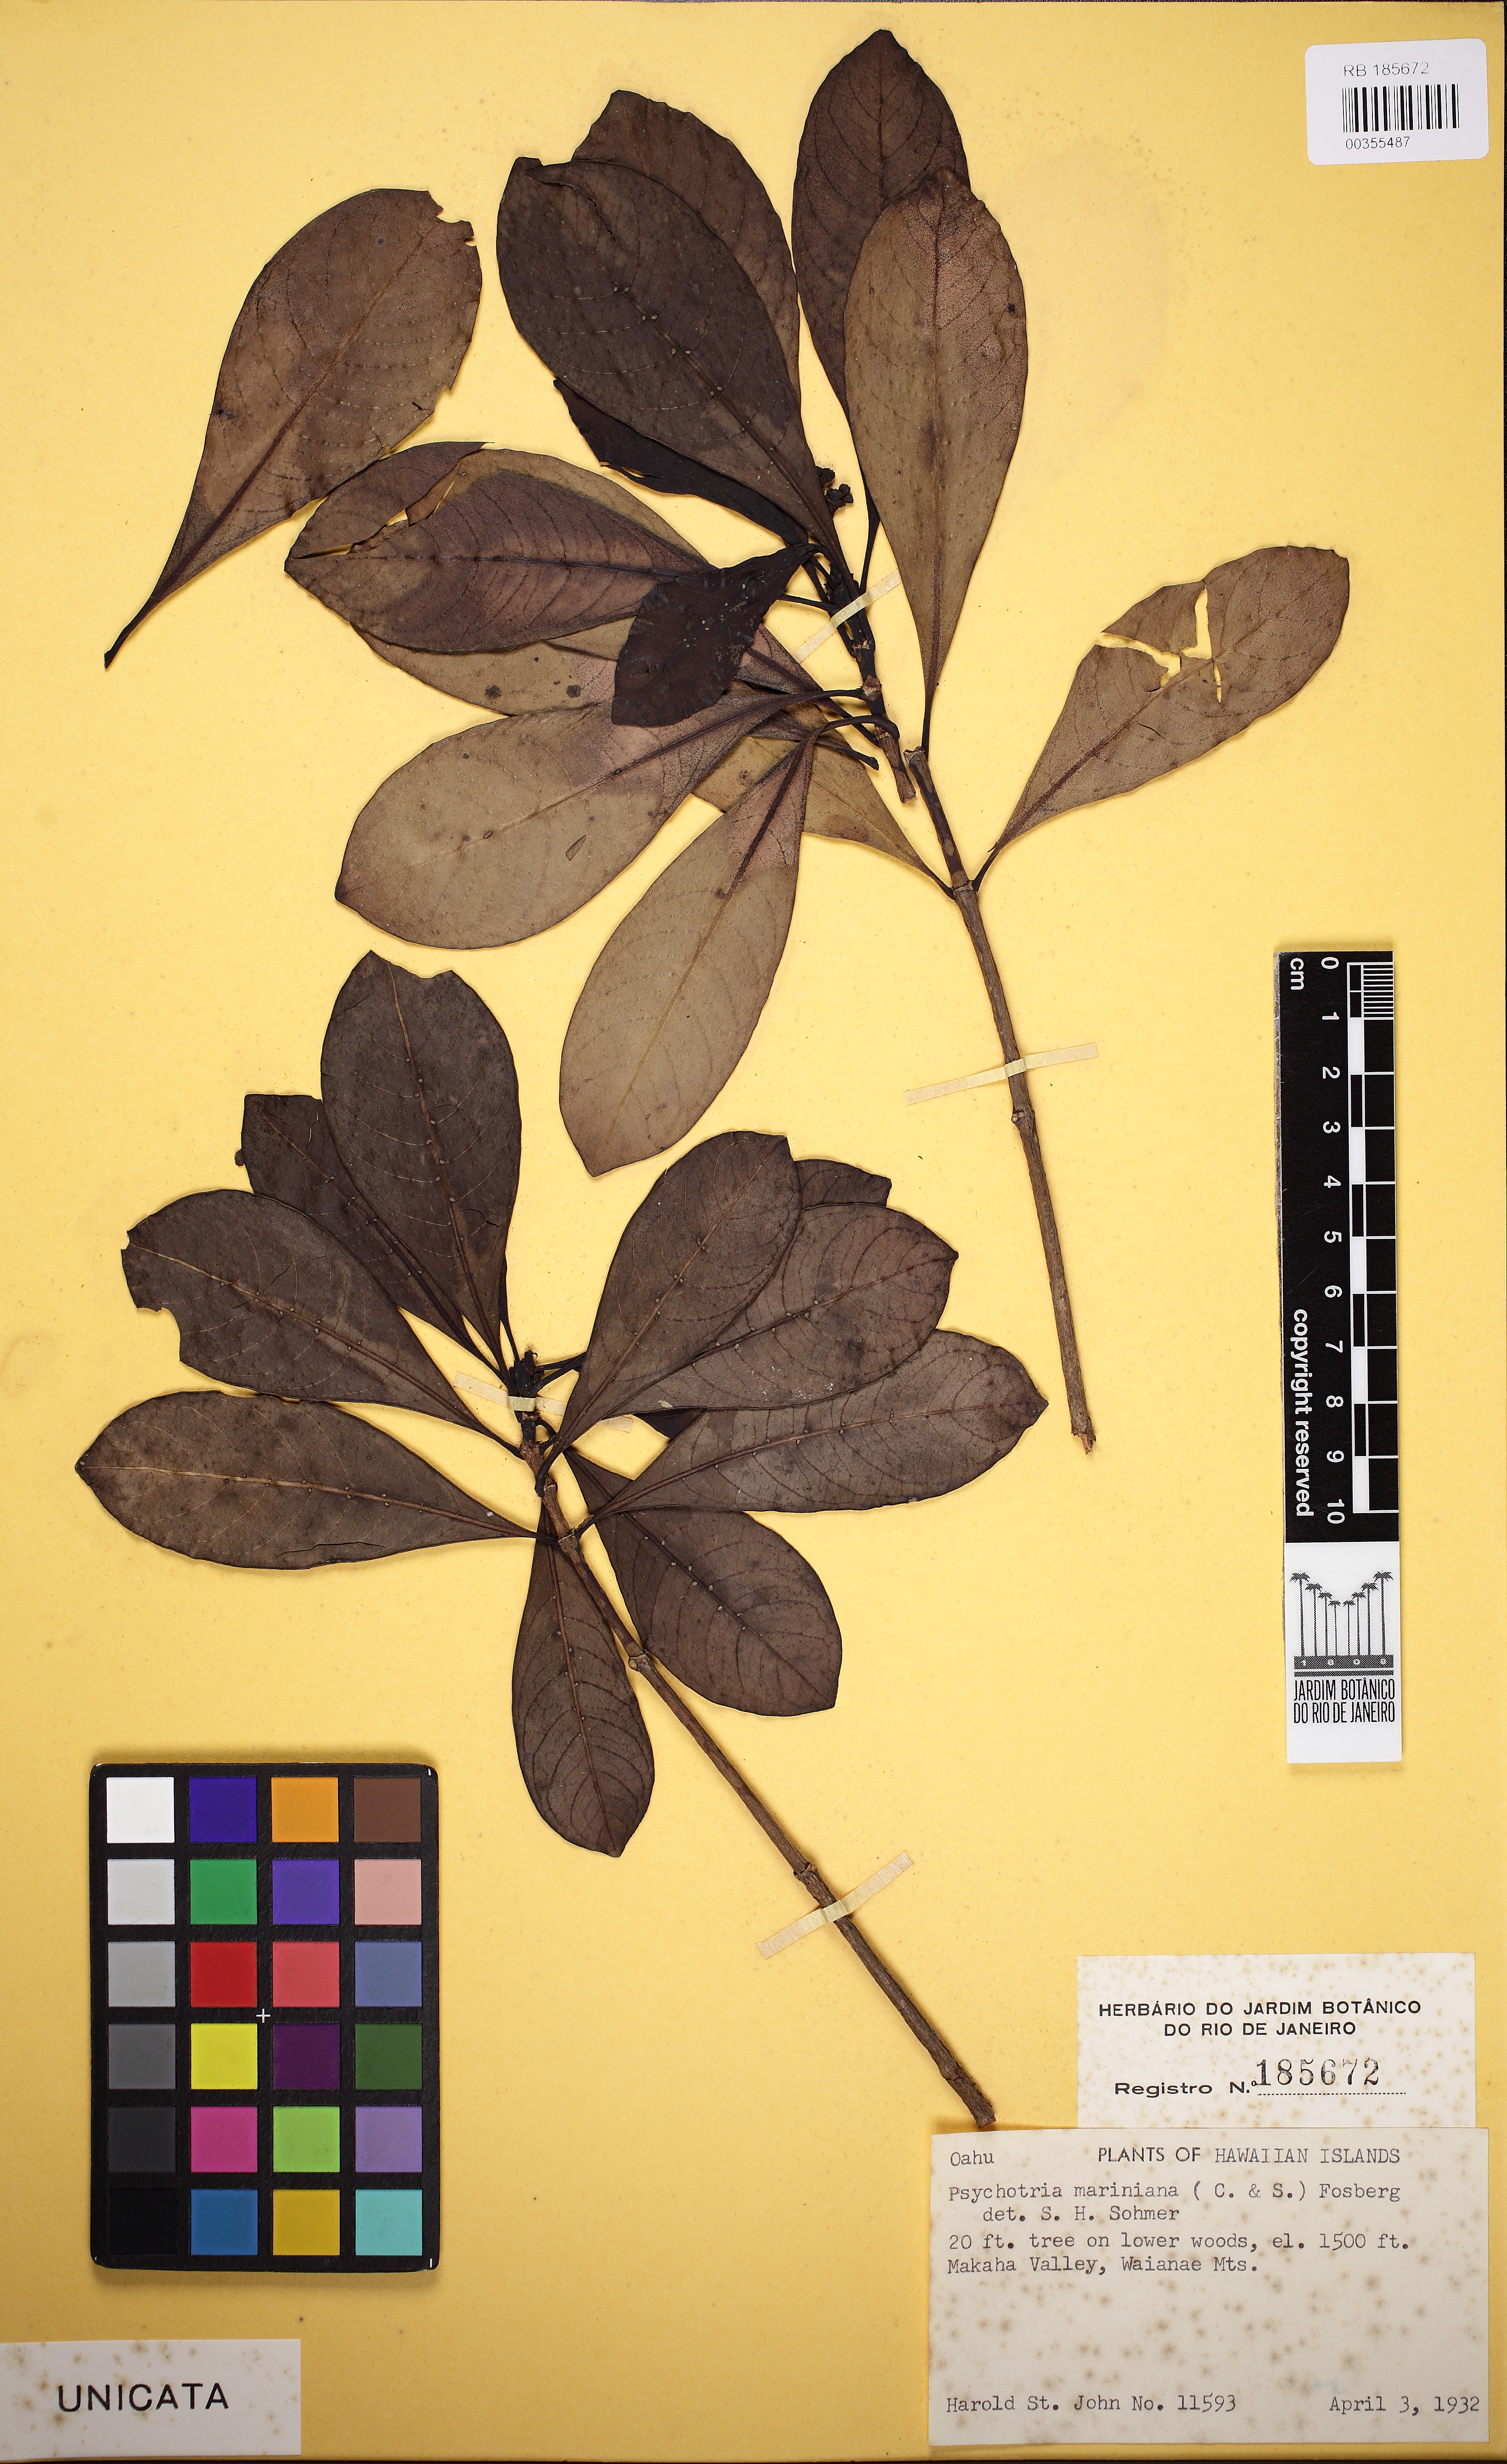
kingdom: Plantae
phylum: Tracheophyta
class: Magnoliopsida
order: Gentianales
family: Rubiaceae
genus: Psychotria
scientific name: Psychotria mariniana
